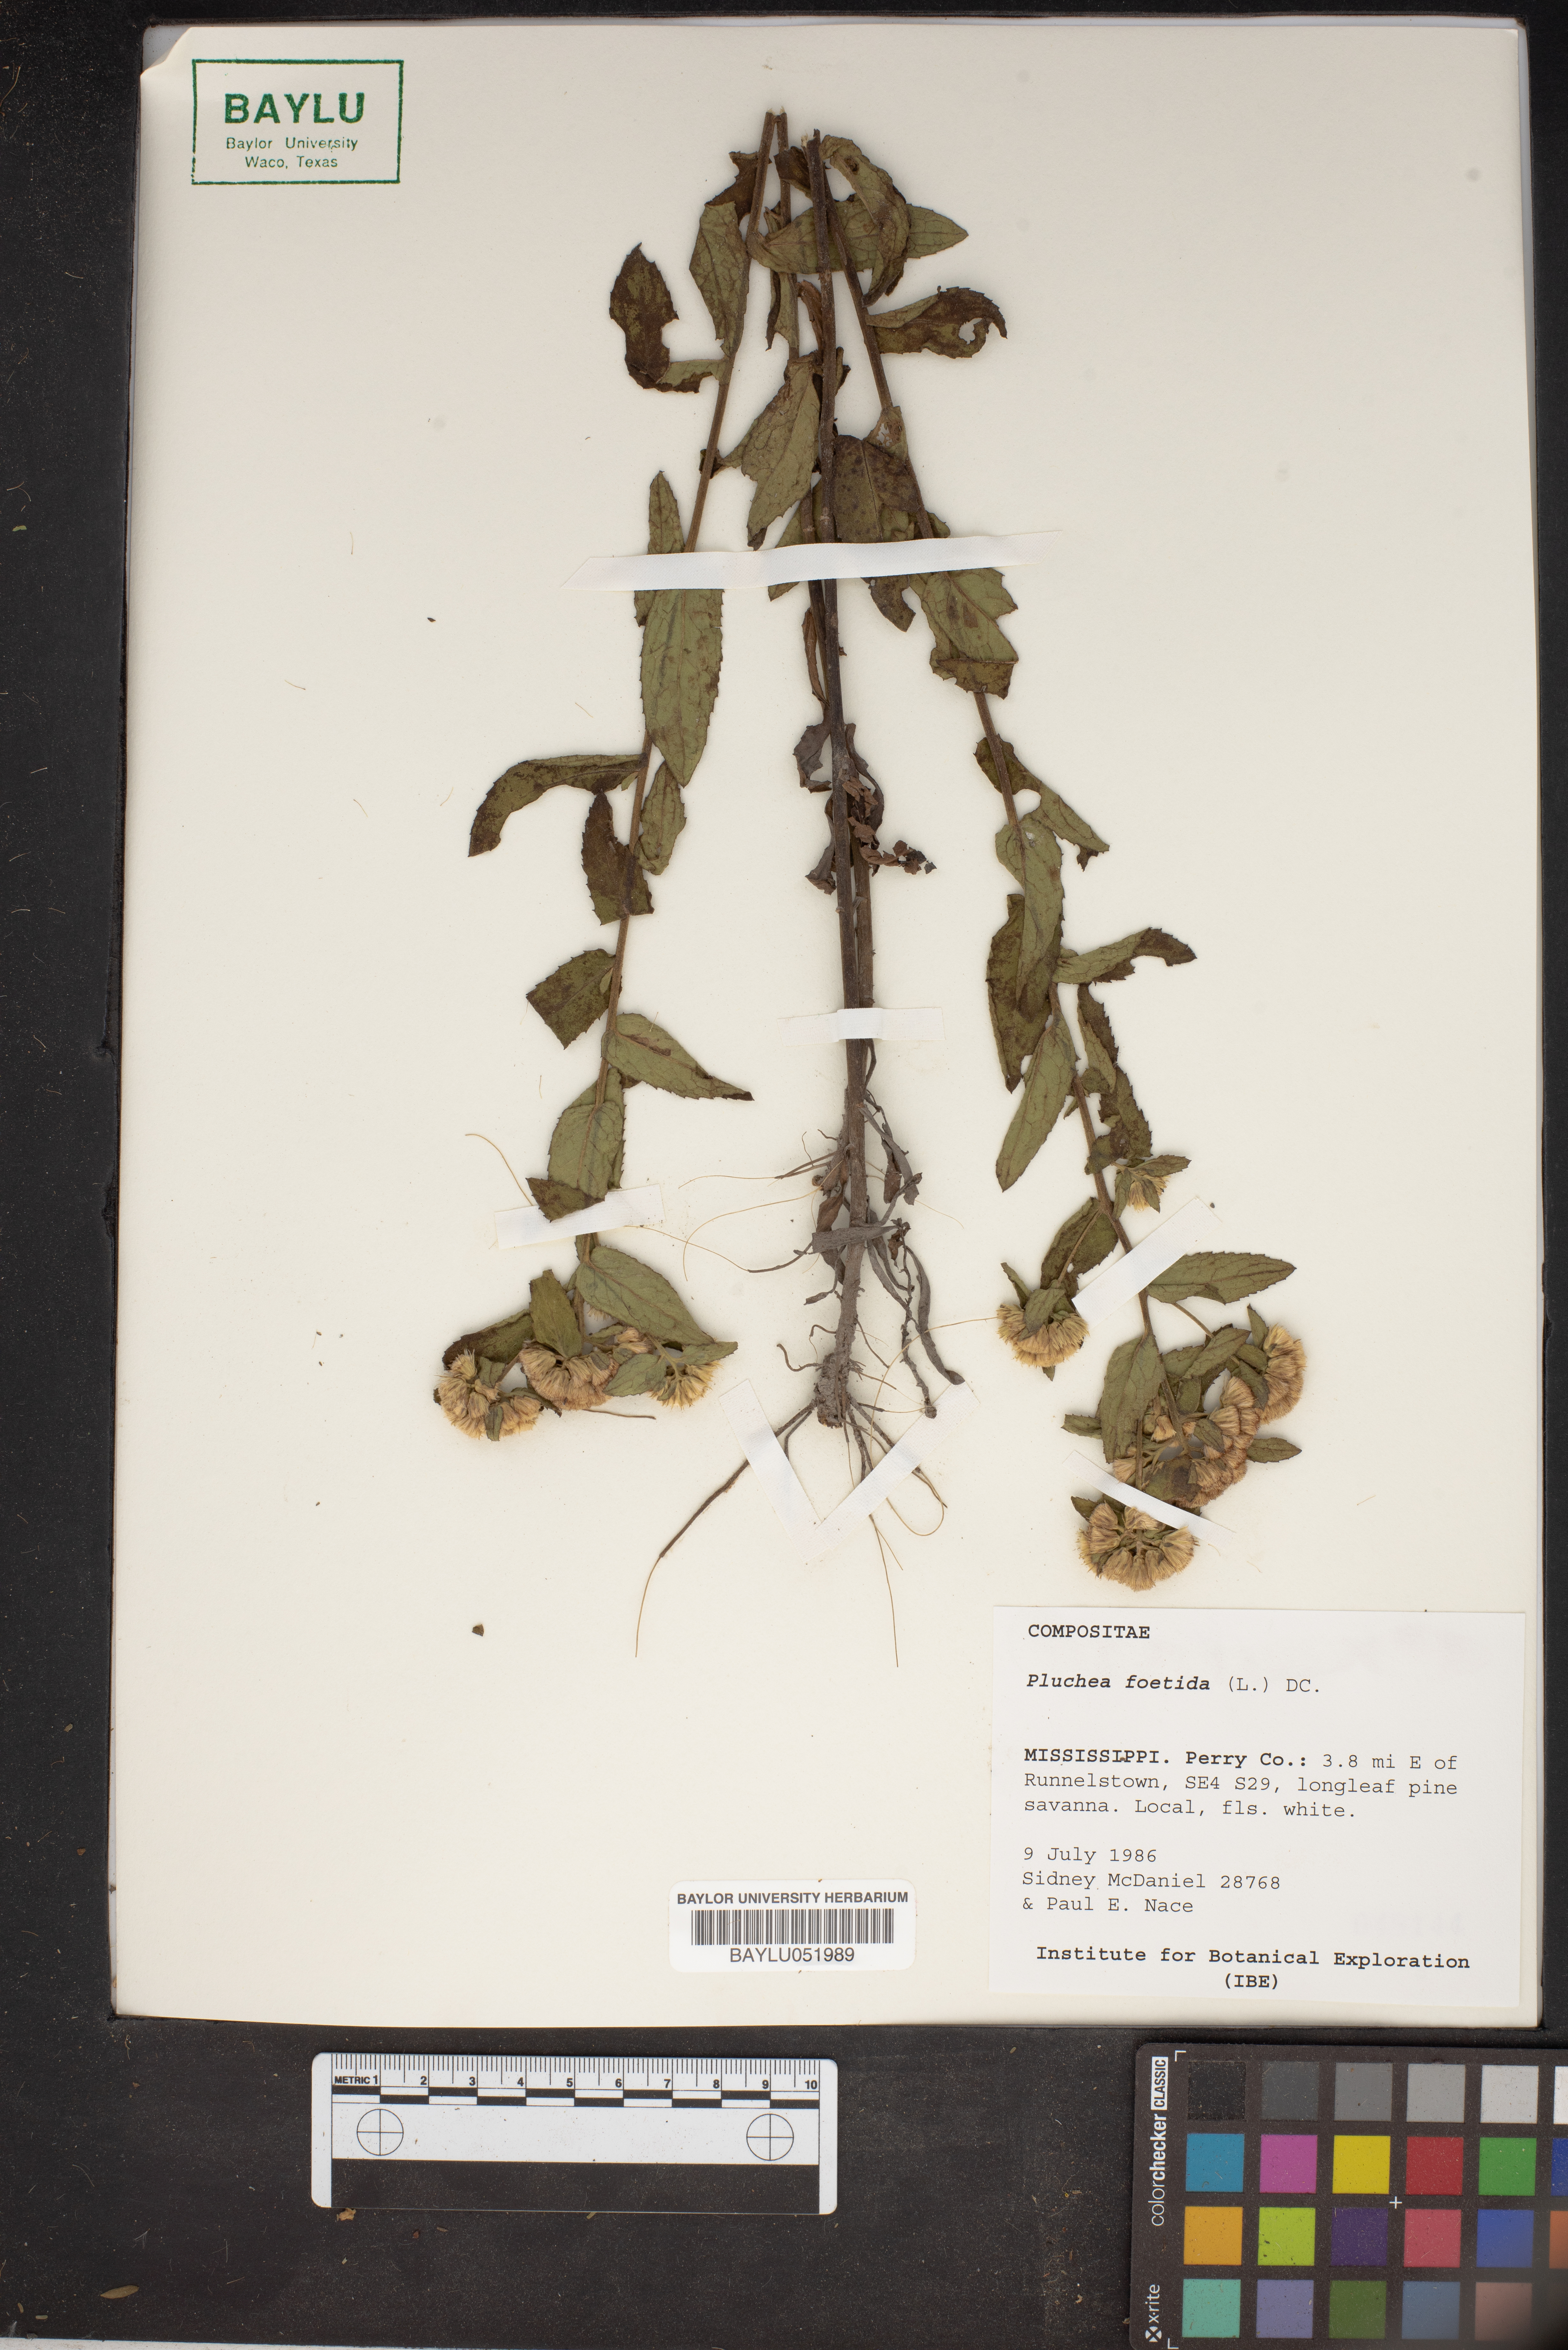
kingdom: Plantae
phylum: Tracheophyta
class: Magnoliopsida
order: Asterales
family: Asteraceae
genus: Pluchea
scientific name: Pluchea foetida
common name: Stinking camphorweed
